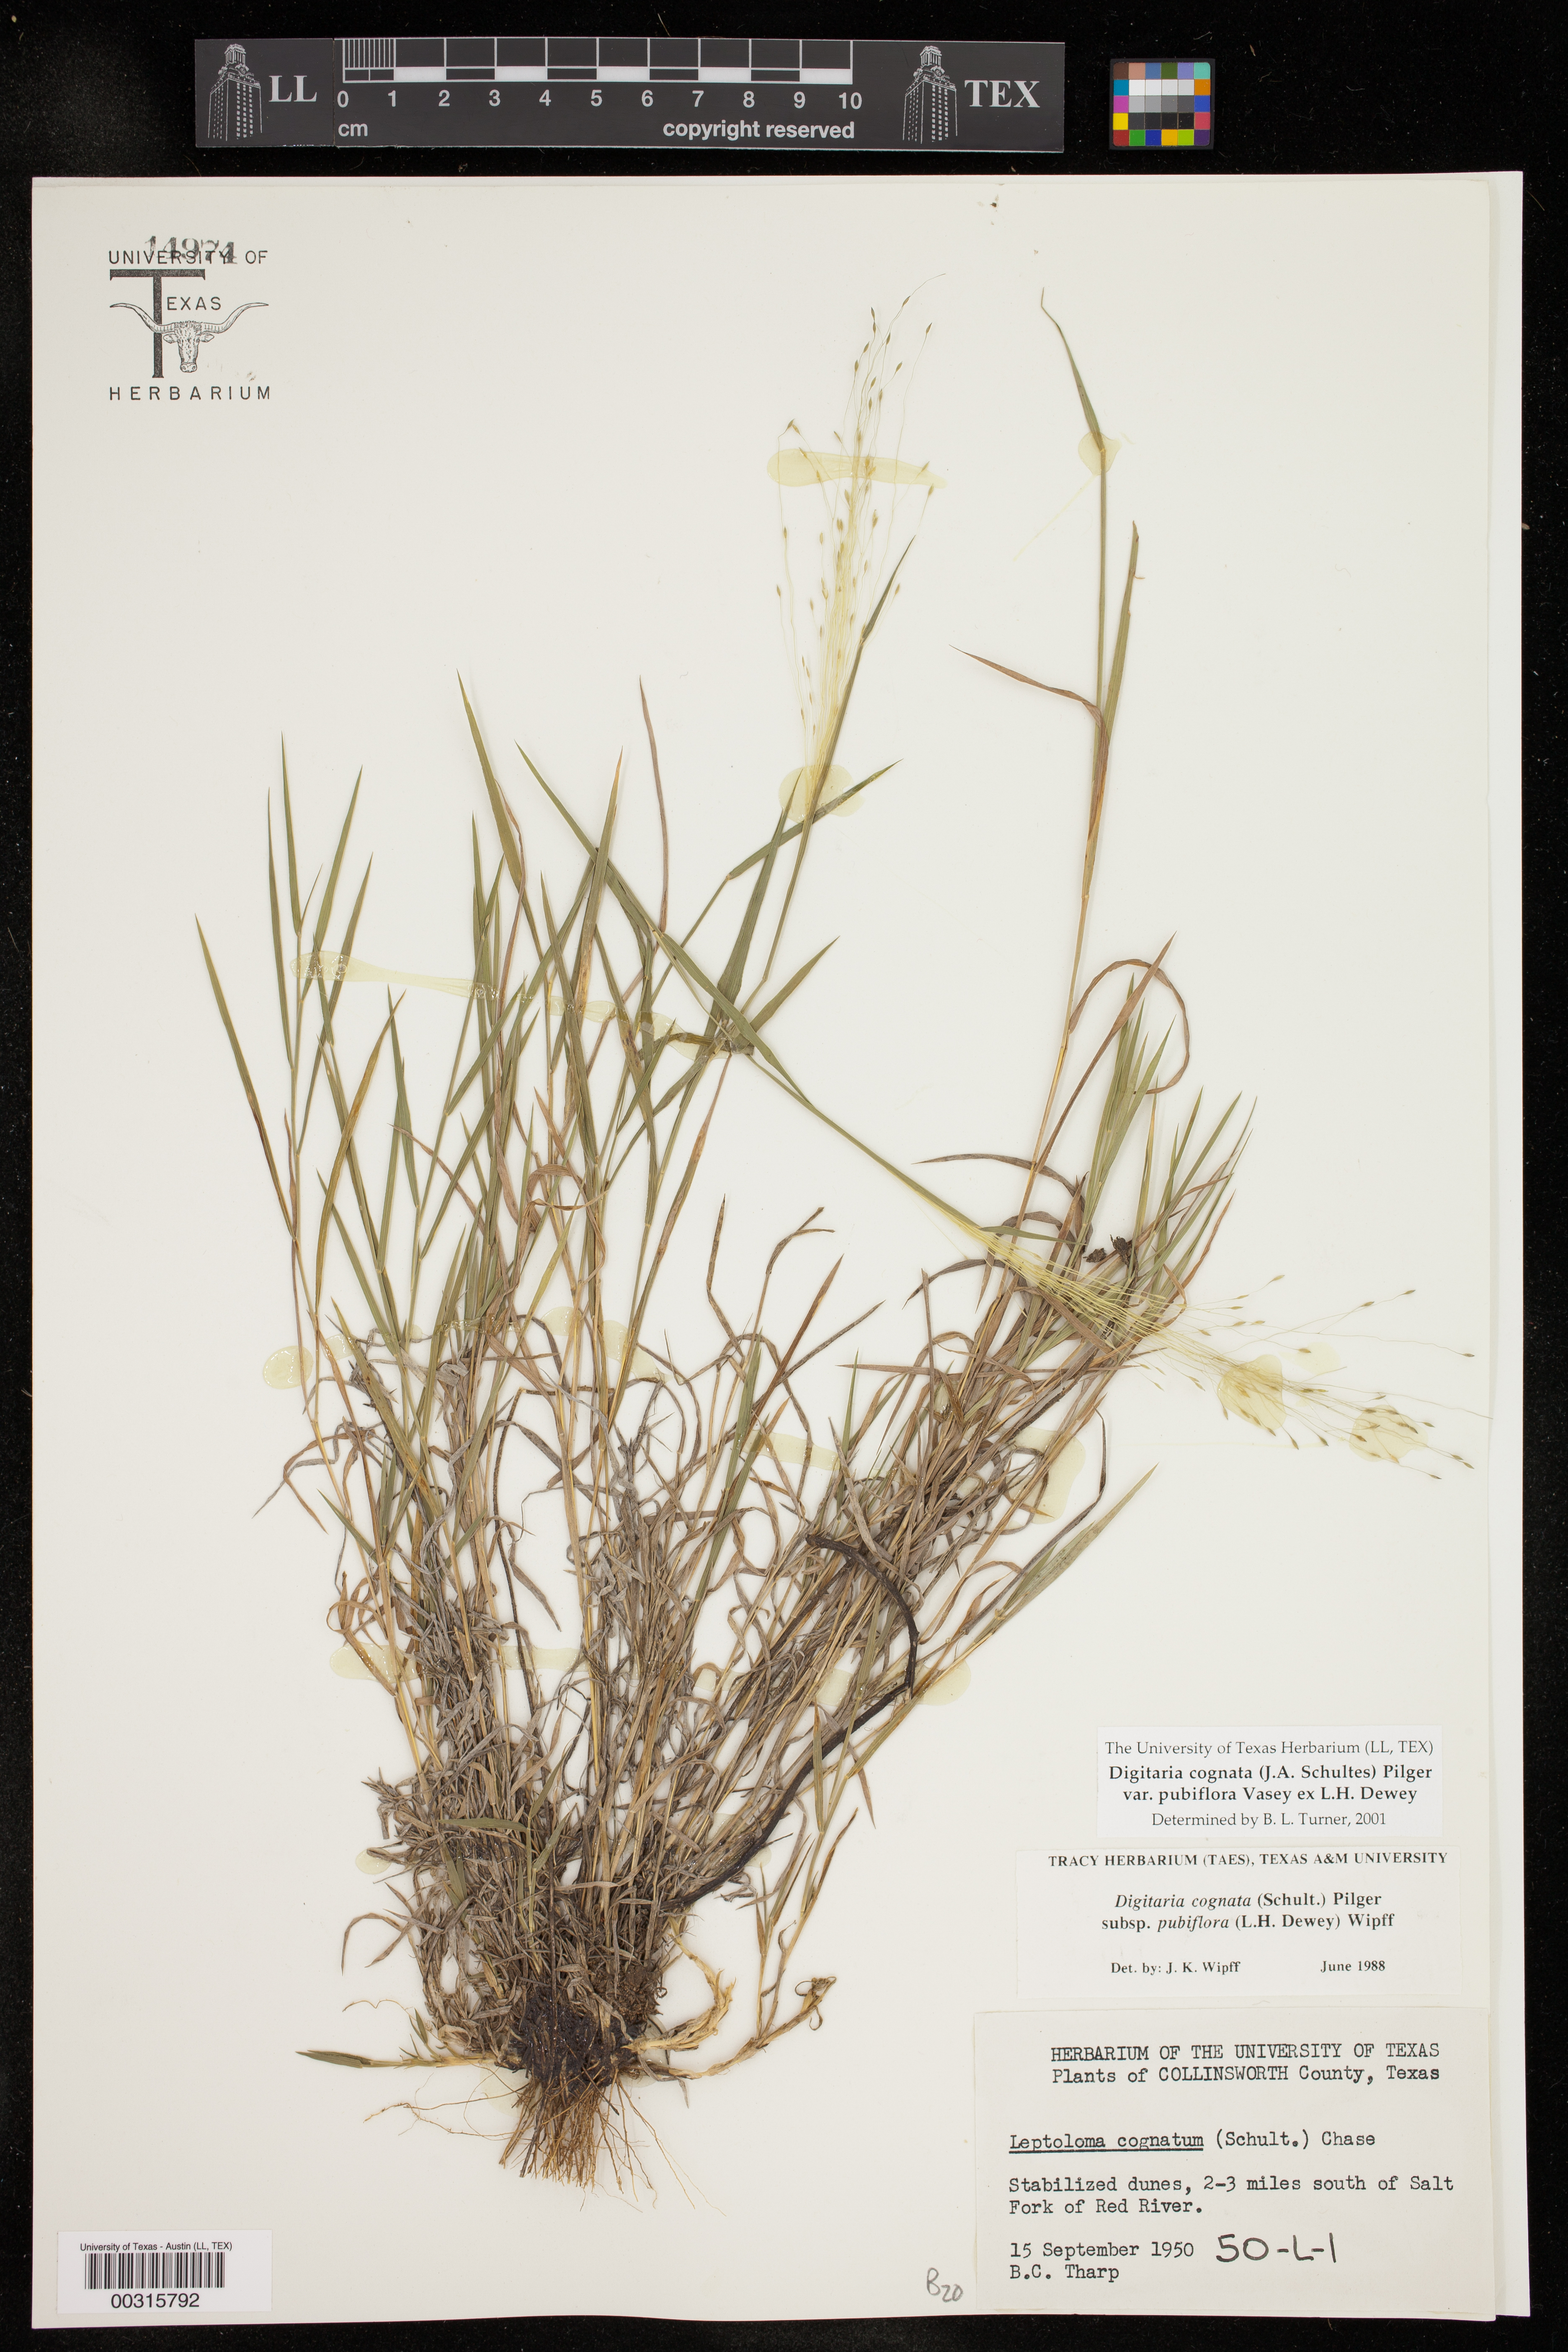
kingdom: Plantae
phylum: Tracheophyta
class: Liliopsida
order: Poales
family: Poaceae
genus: Digitaria
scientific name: Digitaria cognata
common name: Fall witchgrass
